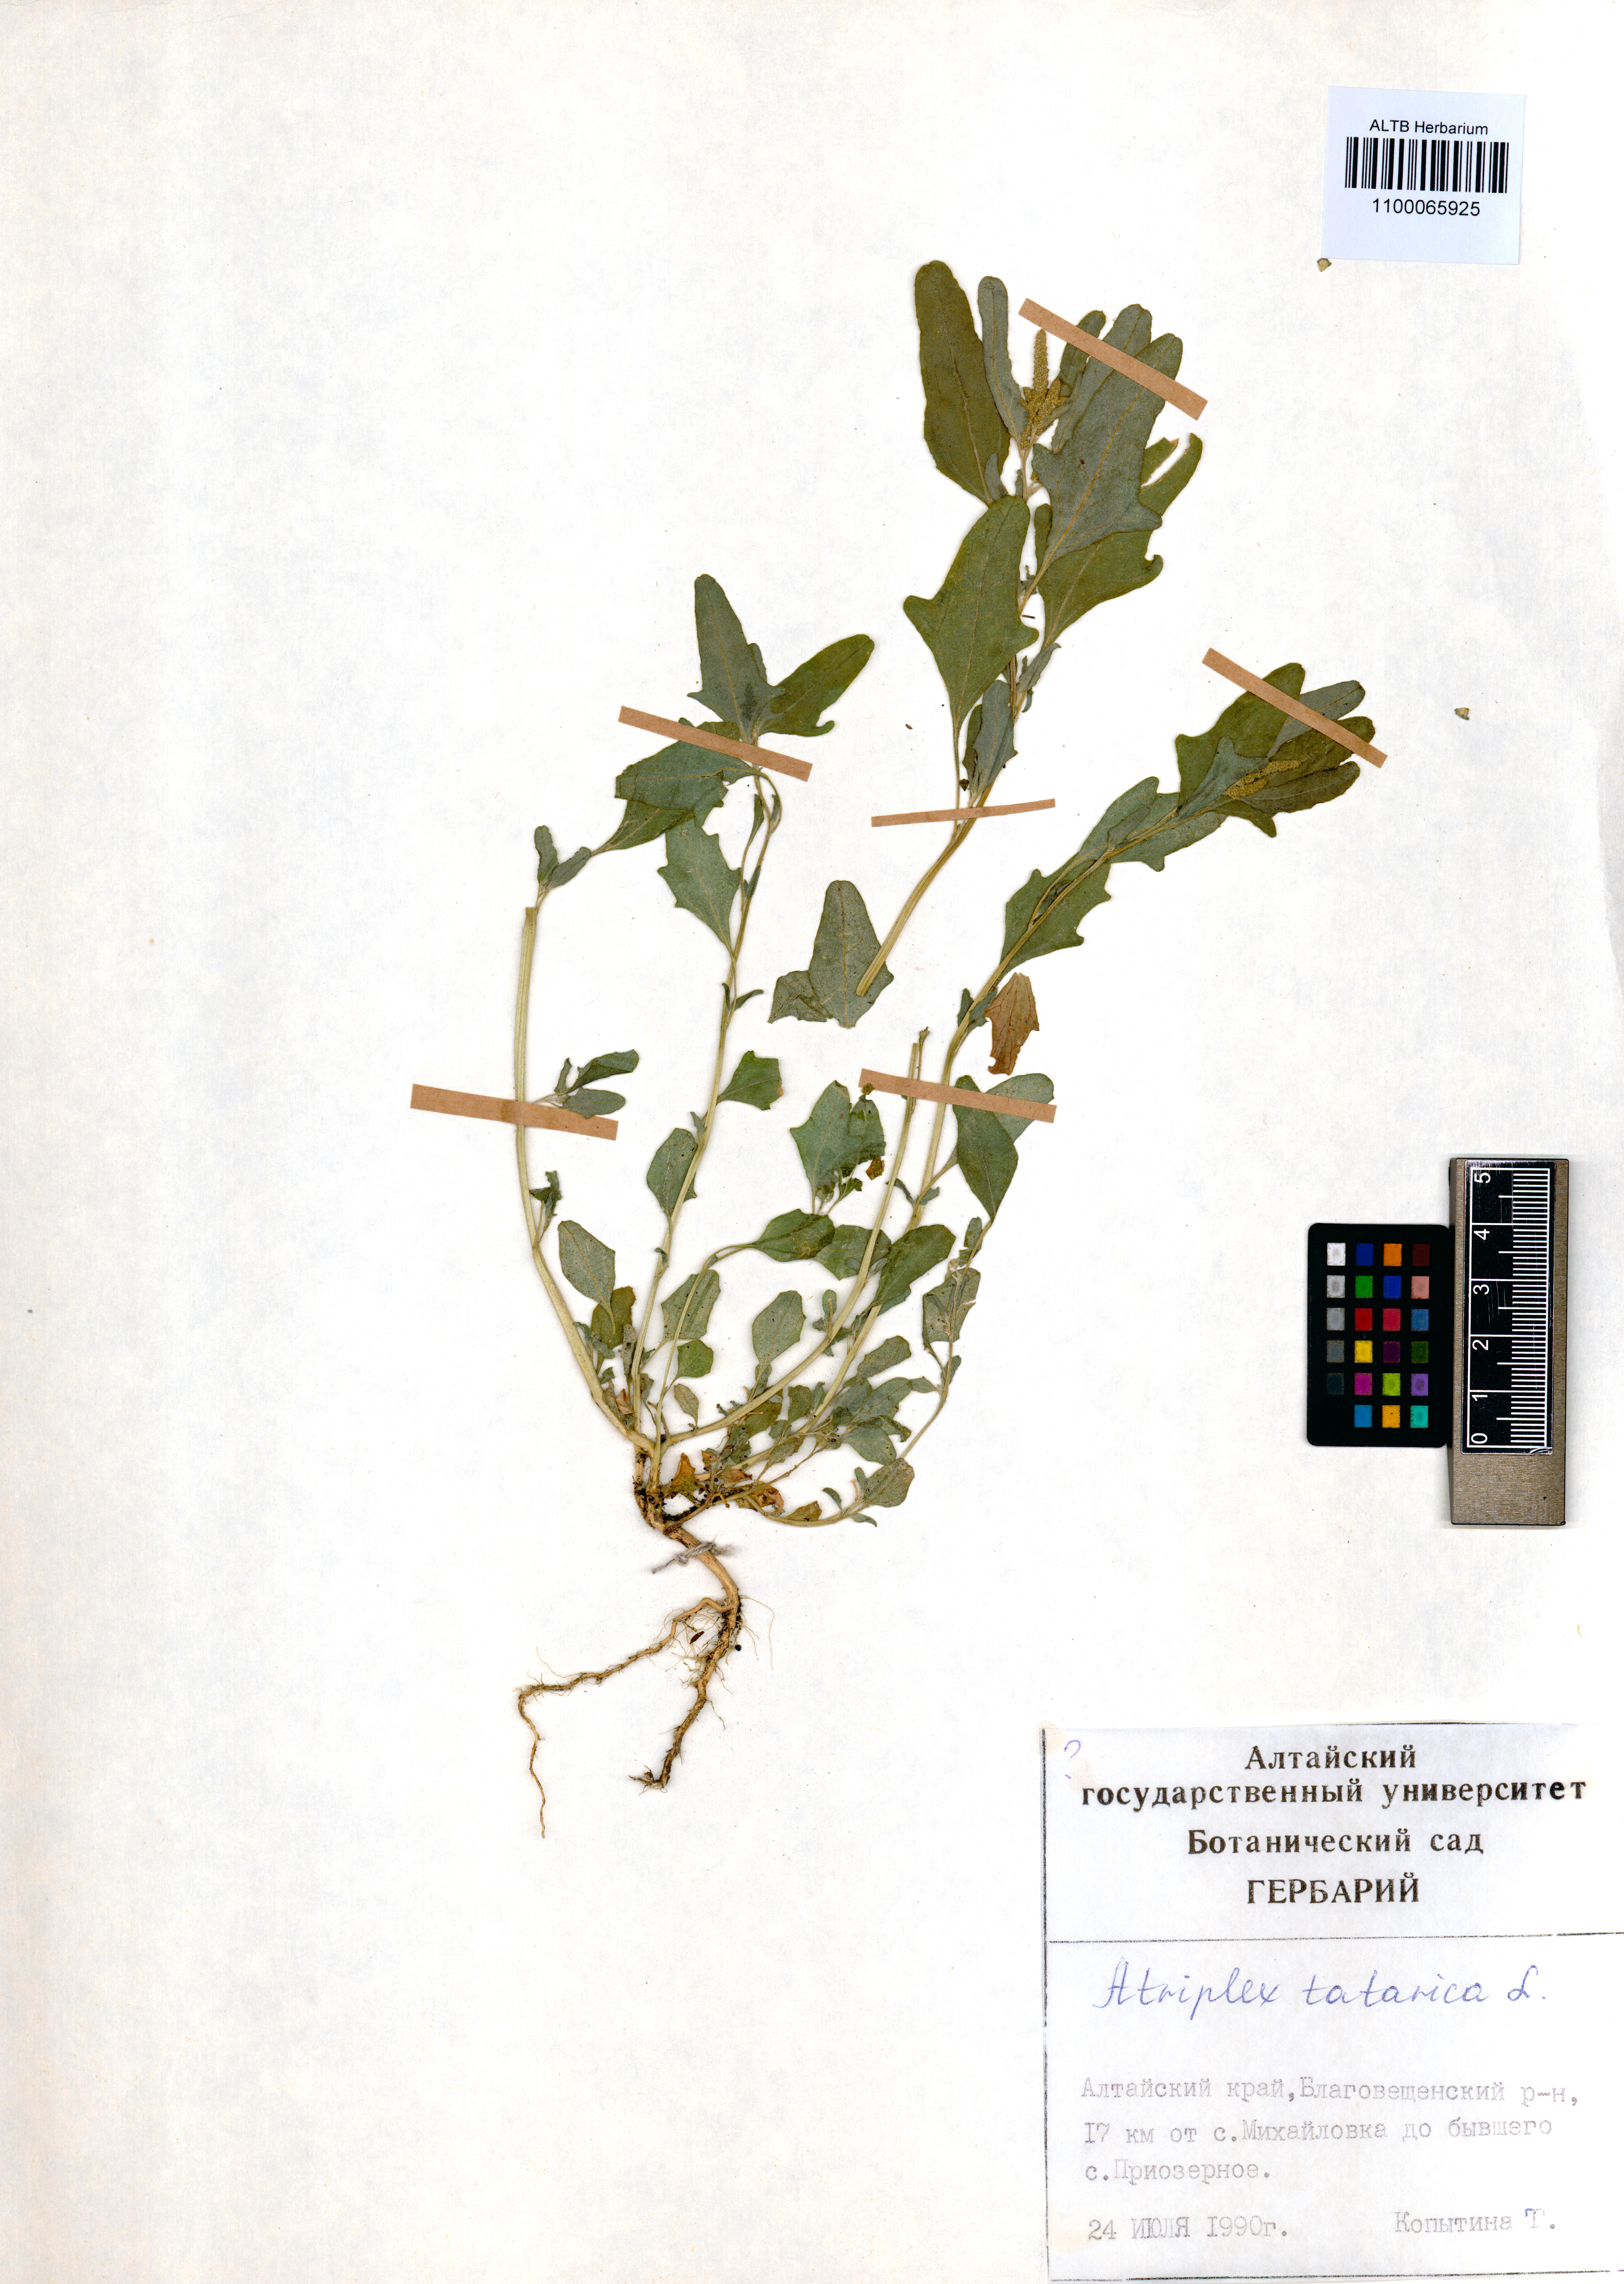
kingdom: Plantae
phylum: Tracheophyta
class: Magnoliopsida
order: Caryophyllales
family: Amaranthaceae
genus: Atriplex
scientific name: Atriplex tatarica
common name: Tatarian orache
